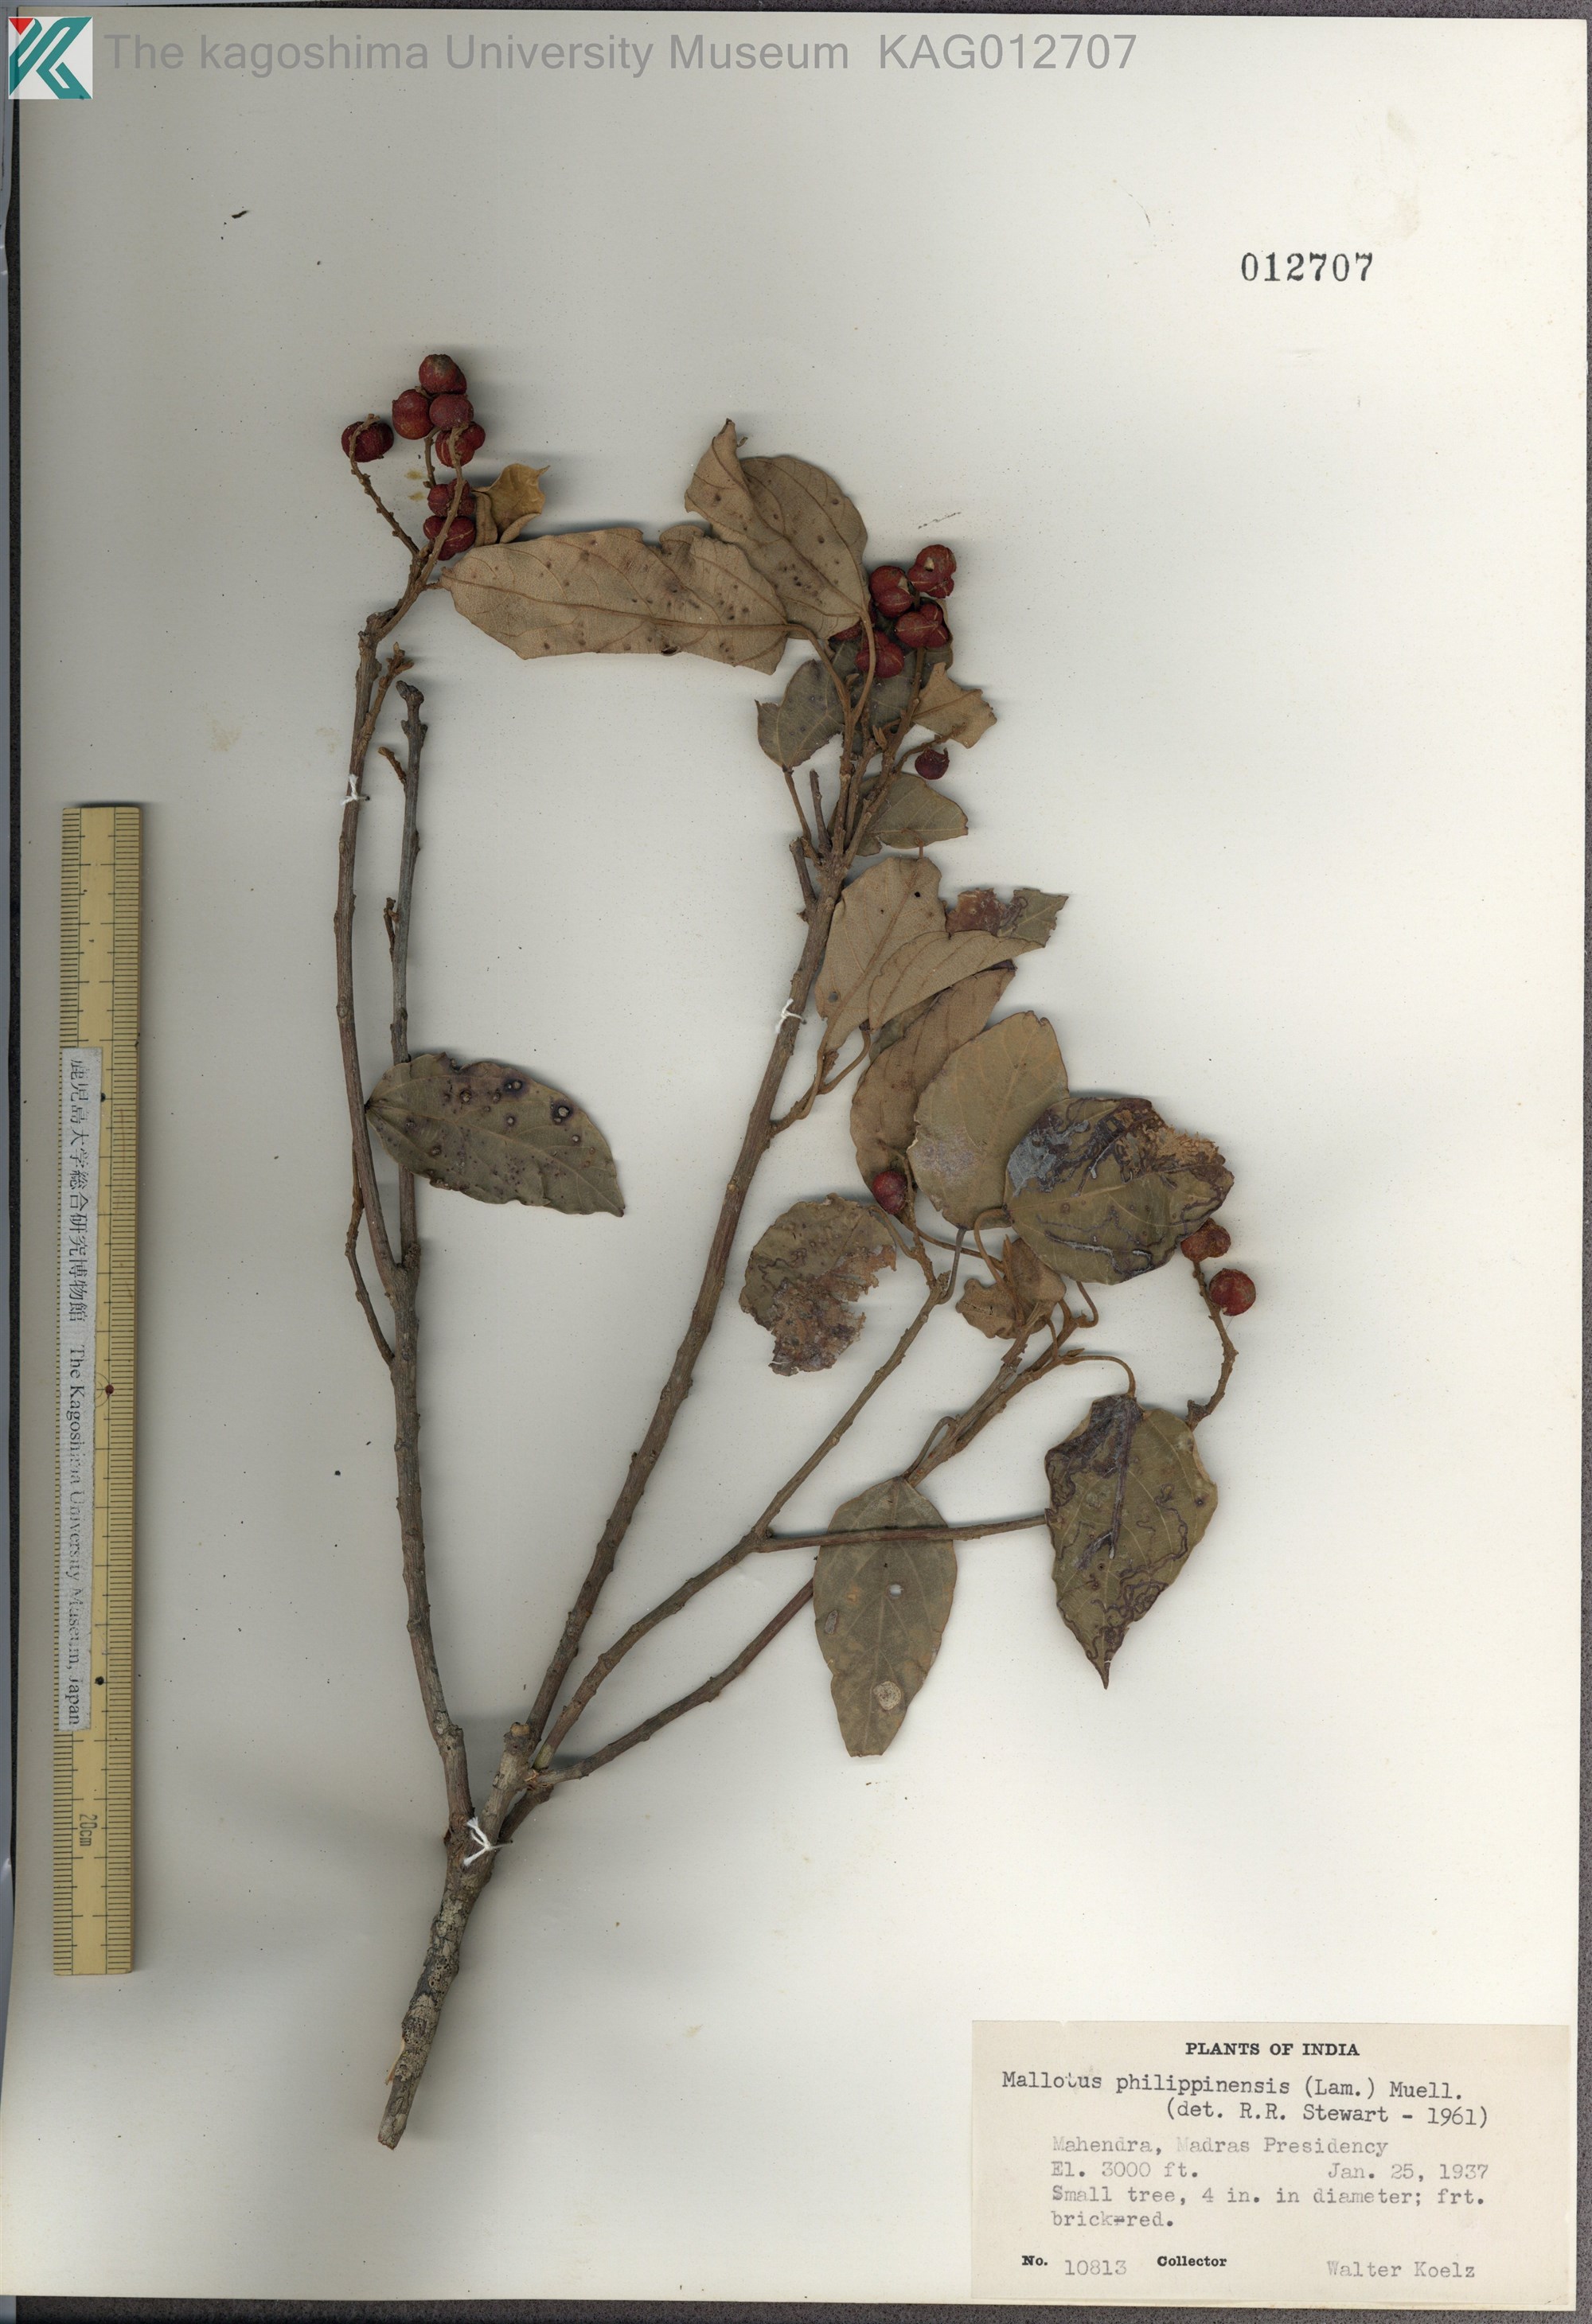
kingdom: Plantae
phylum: Tracheophyta
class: Magnoliopsida
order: Malpighiales
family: Euphorbiaceae
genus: Mallotus
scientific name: Mallotus philippensis
